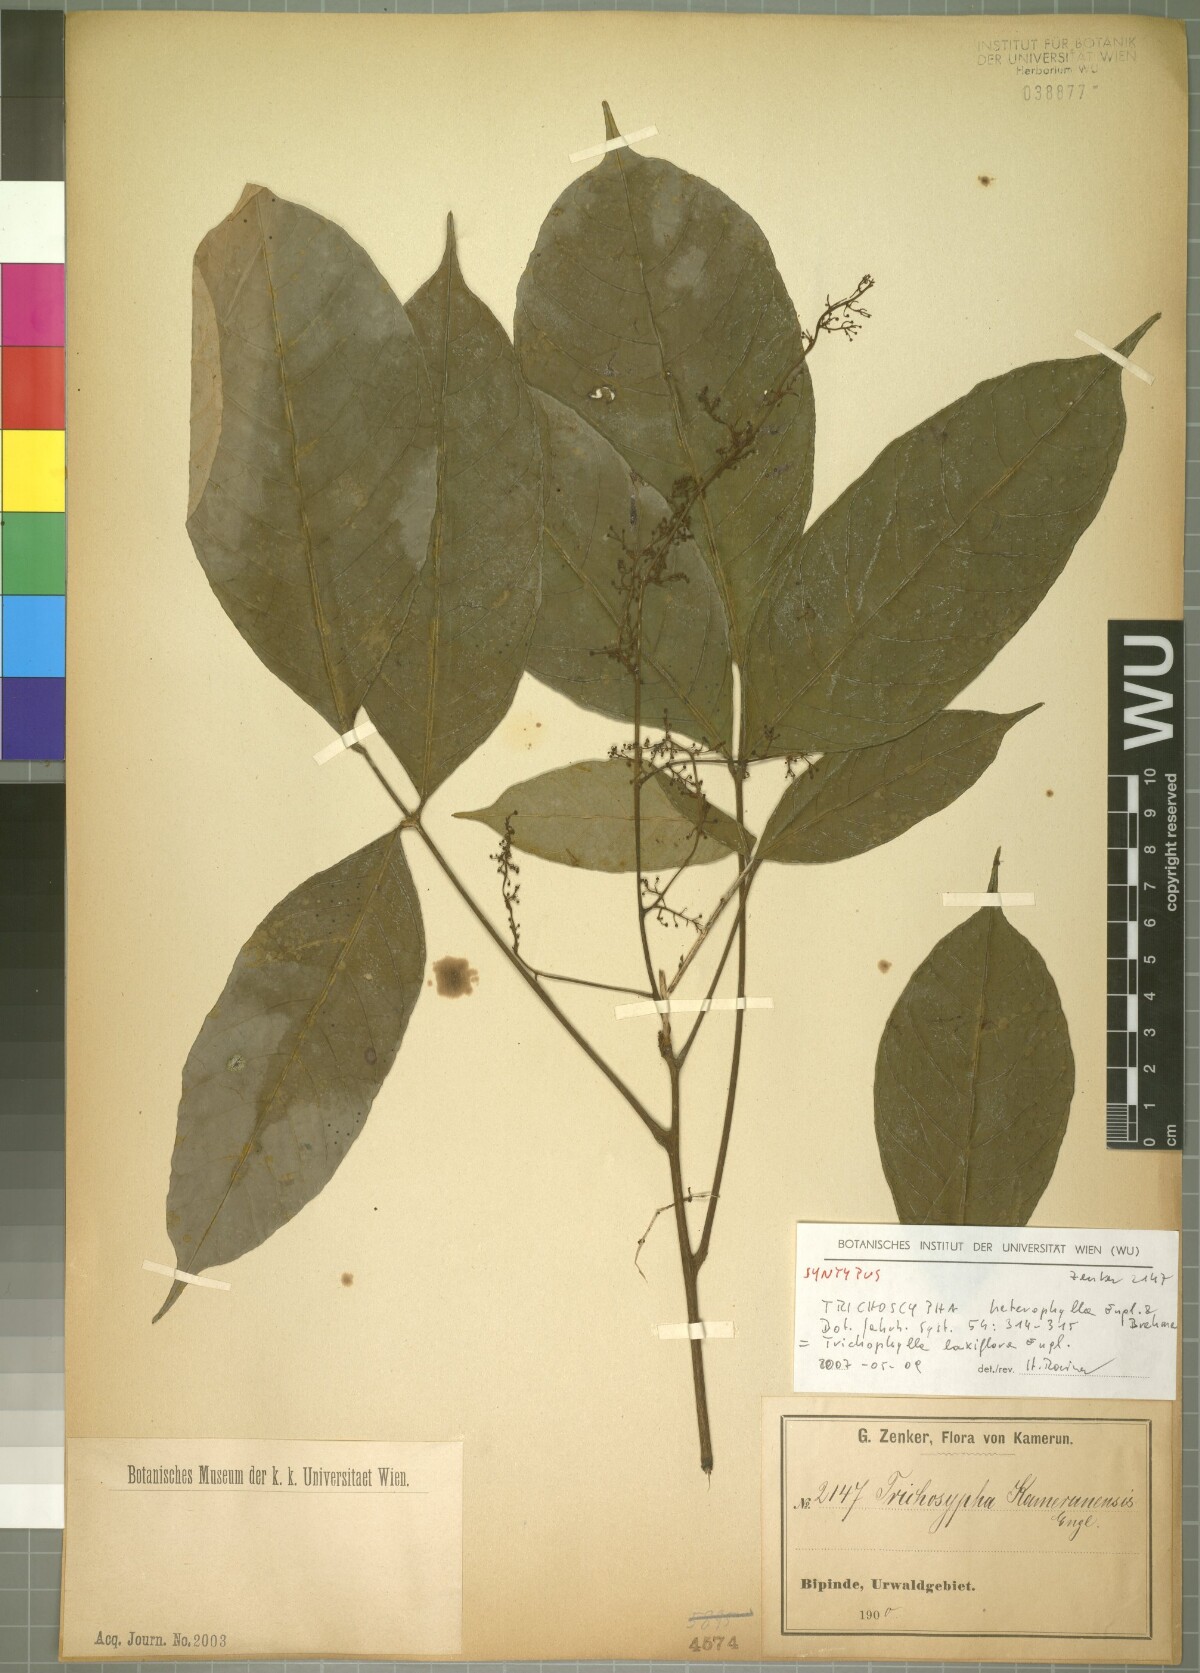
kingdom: Plantae
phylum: Tracheophyta
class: Magnoliopsida
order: Sapindales
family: Anacardiaceae
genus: Trichoscypha
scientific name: Trichoscypha laxiflora
